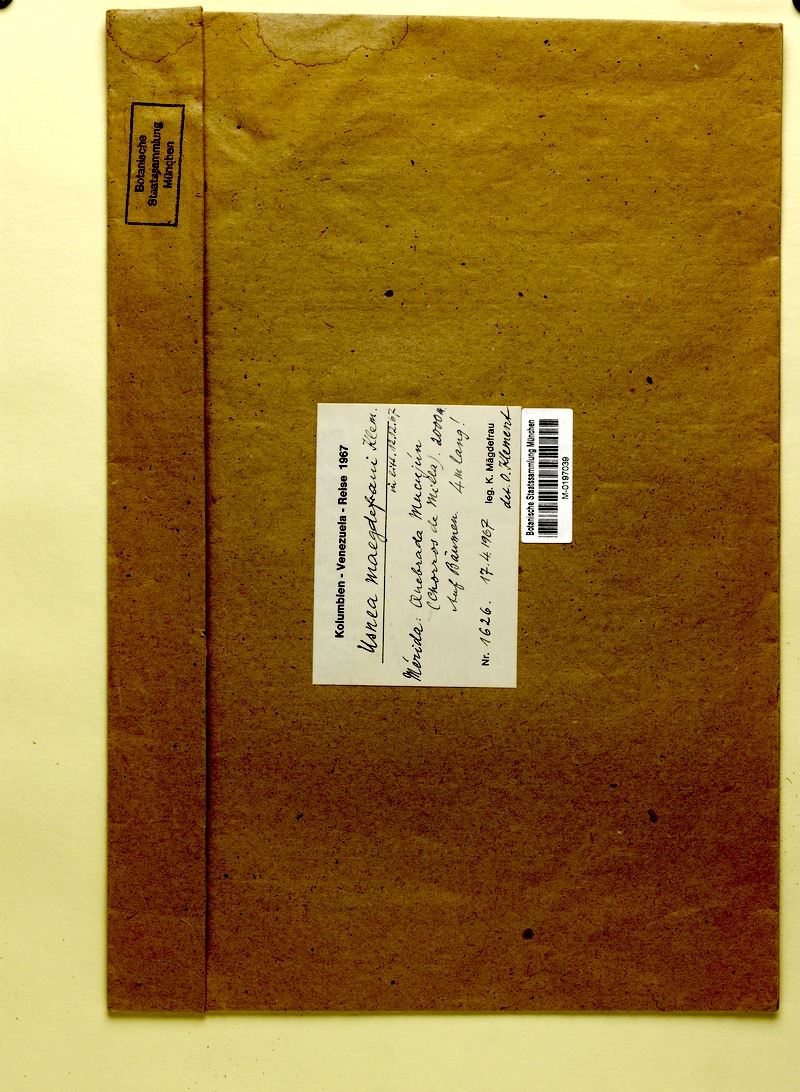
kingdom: Fungi
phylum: Ascomycota
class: Lecanoromycetes
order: Lecanorales
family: Parmeliaceae
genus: Usnea
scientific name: Usnea
